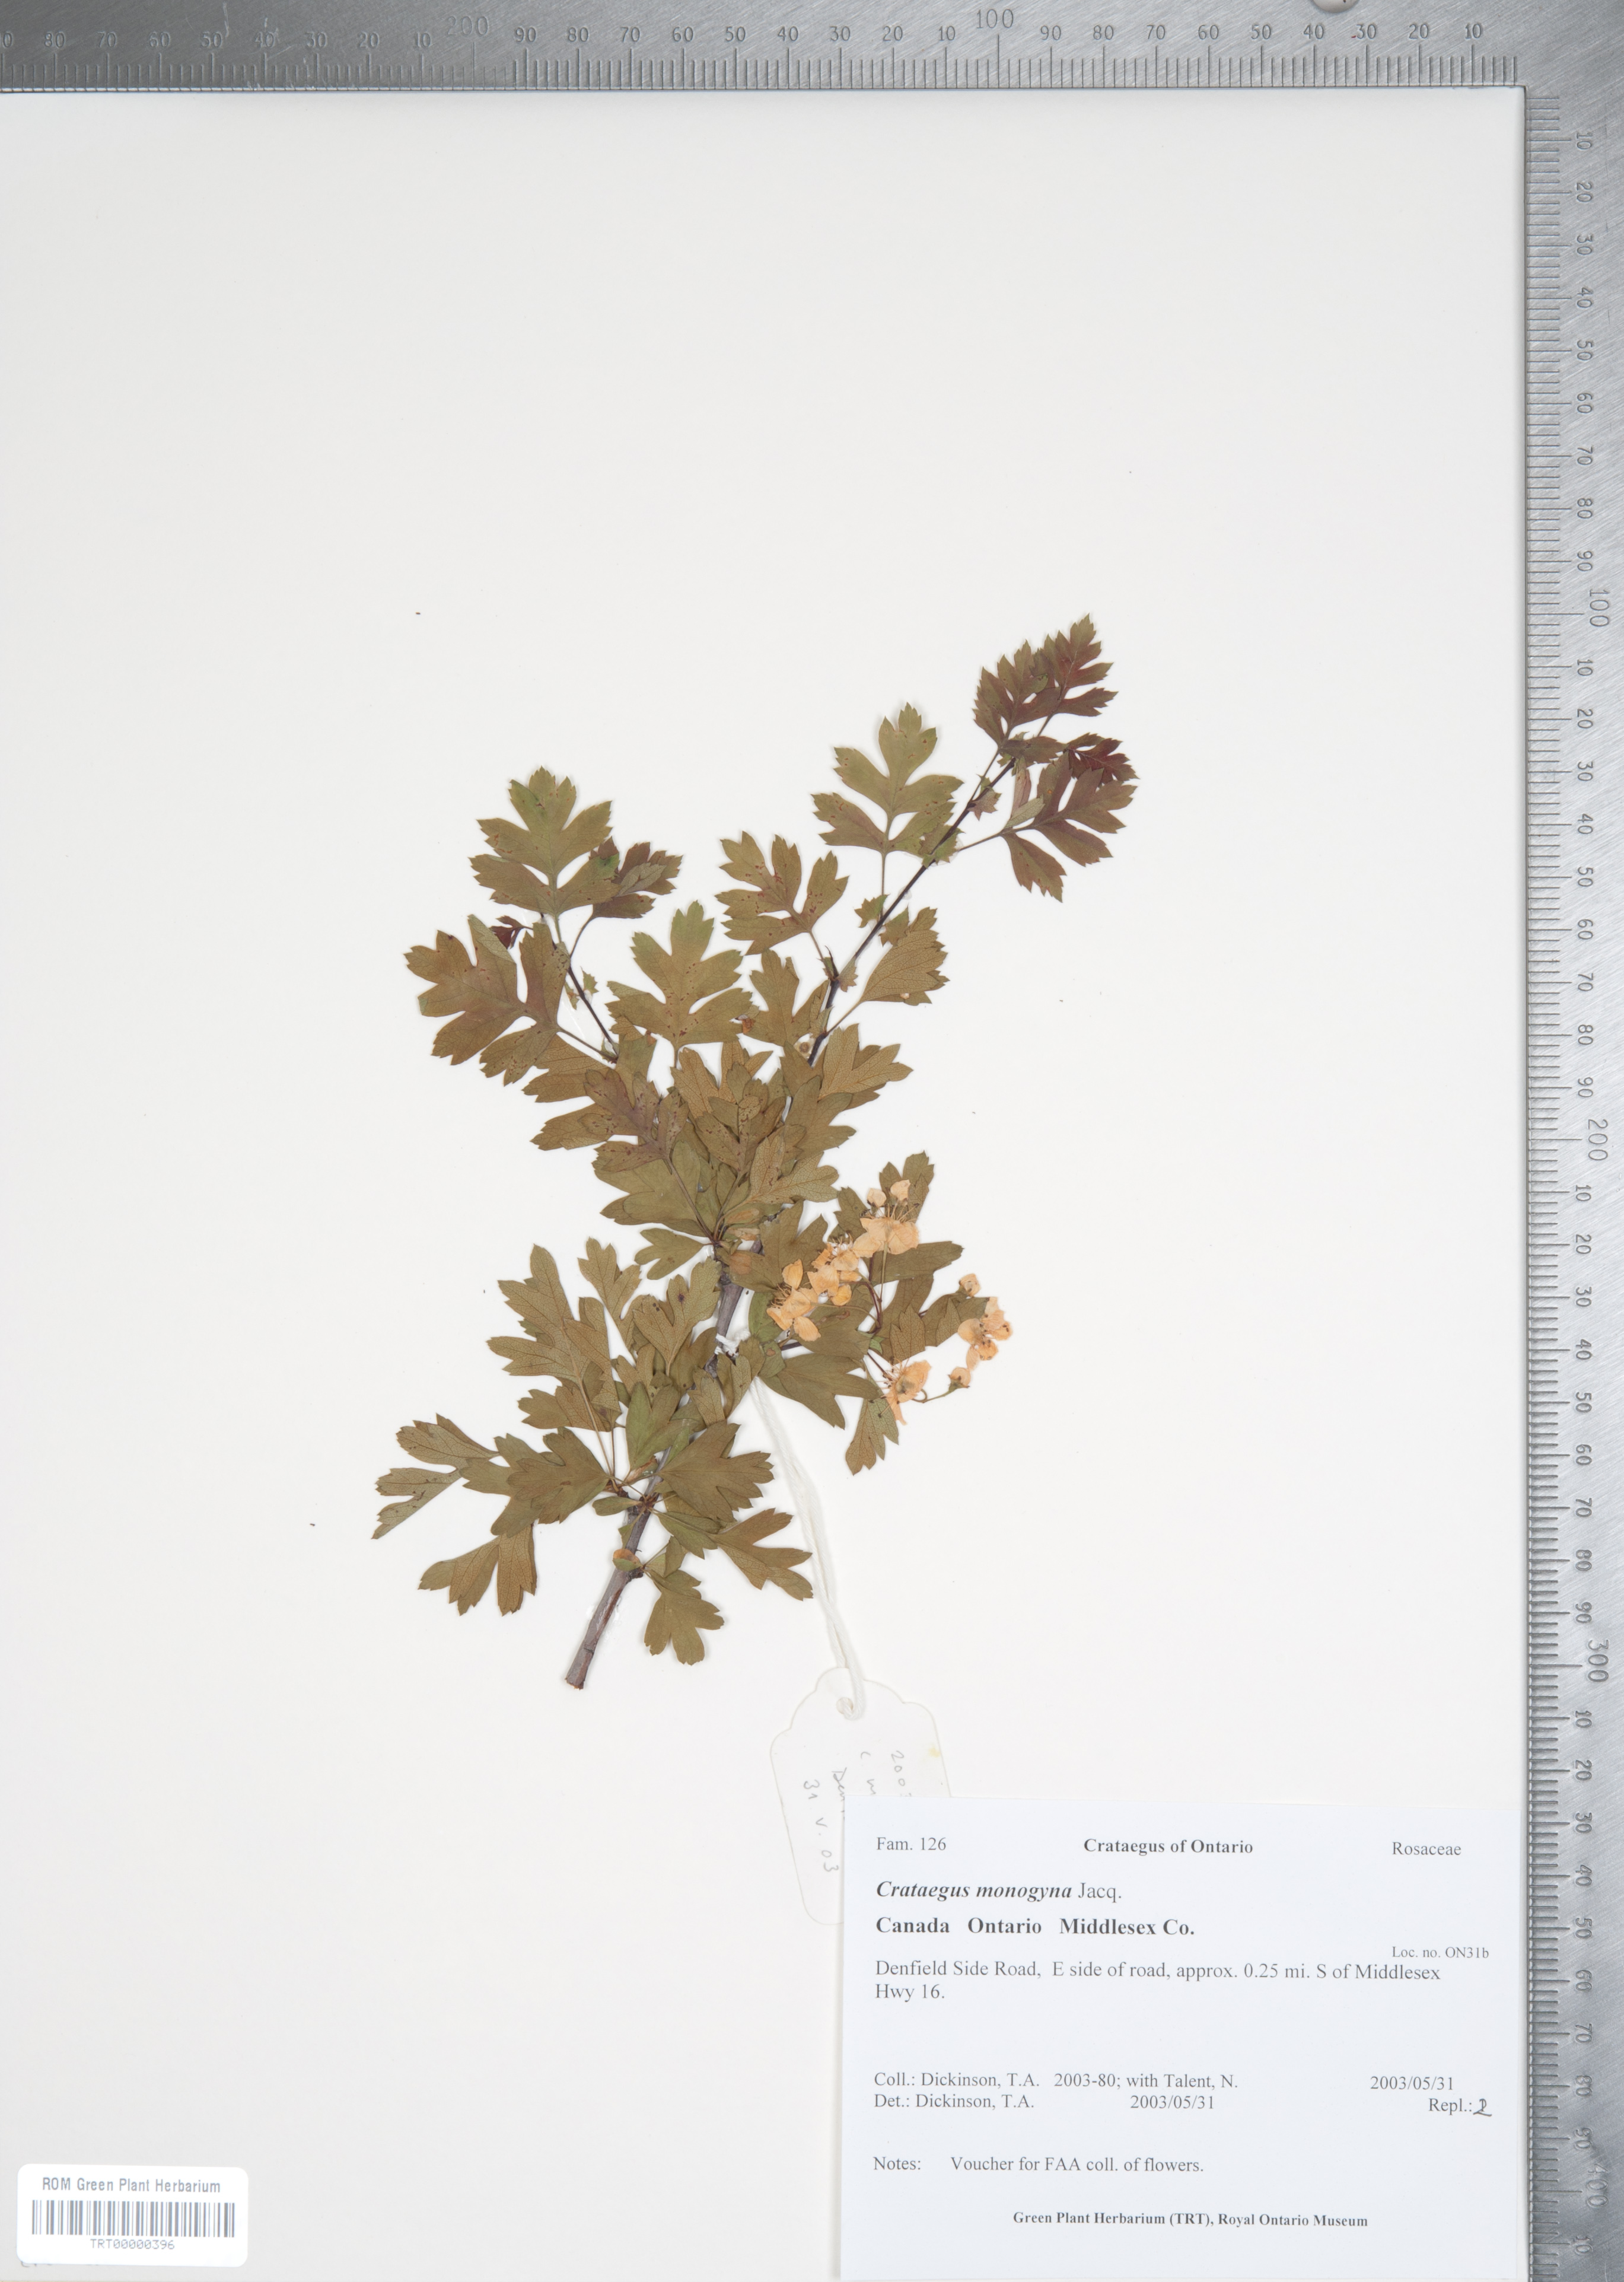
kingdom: Plantae
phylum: Tracheophyta
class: Magnoliopsida
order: Rosales
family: Rosaceae
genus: Crataegus
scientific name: Crataegus monogyna
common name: Hawthorn
